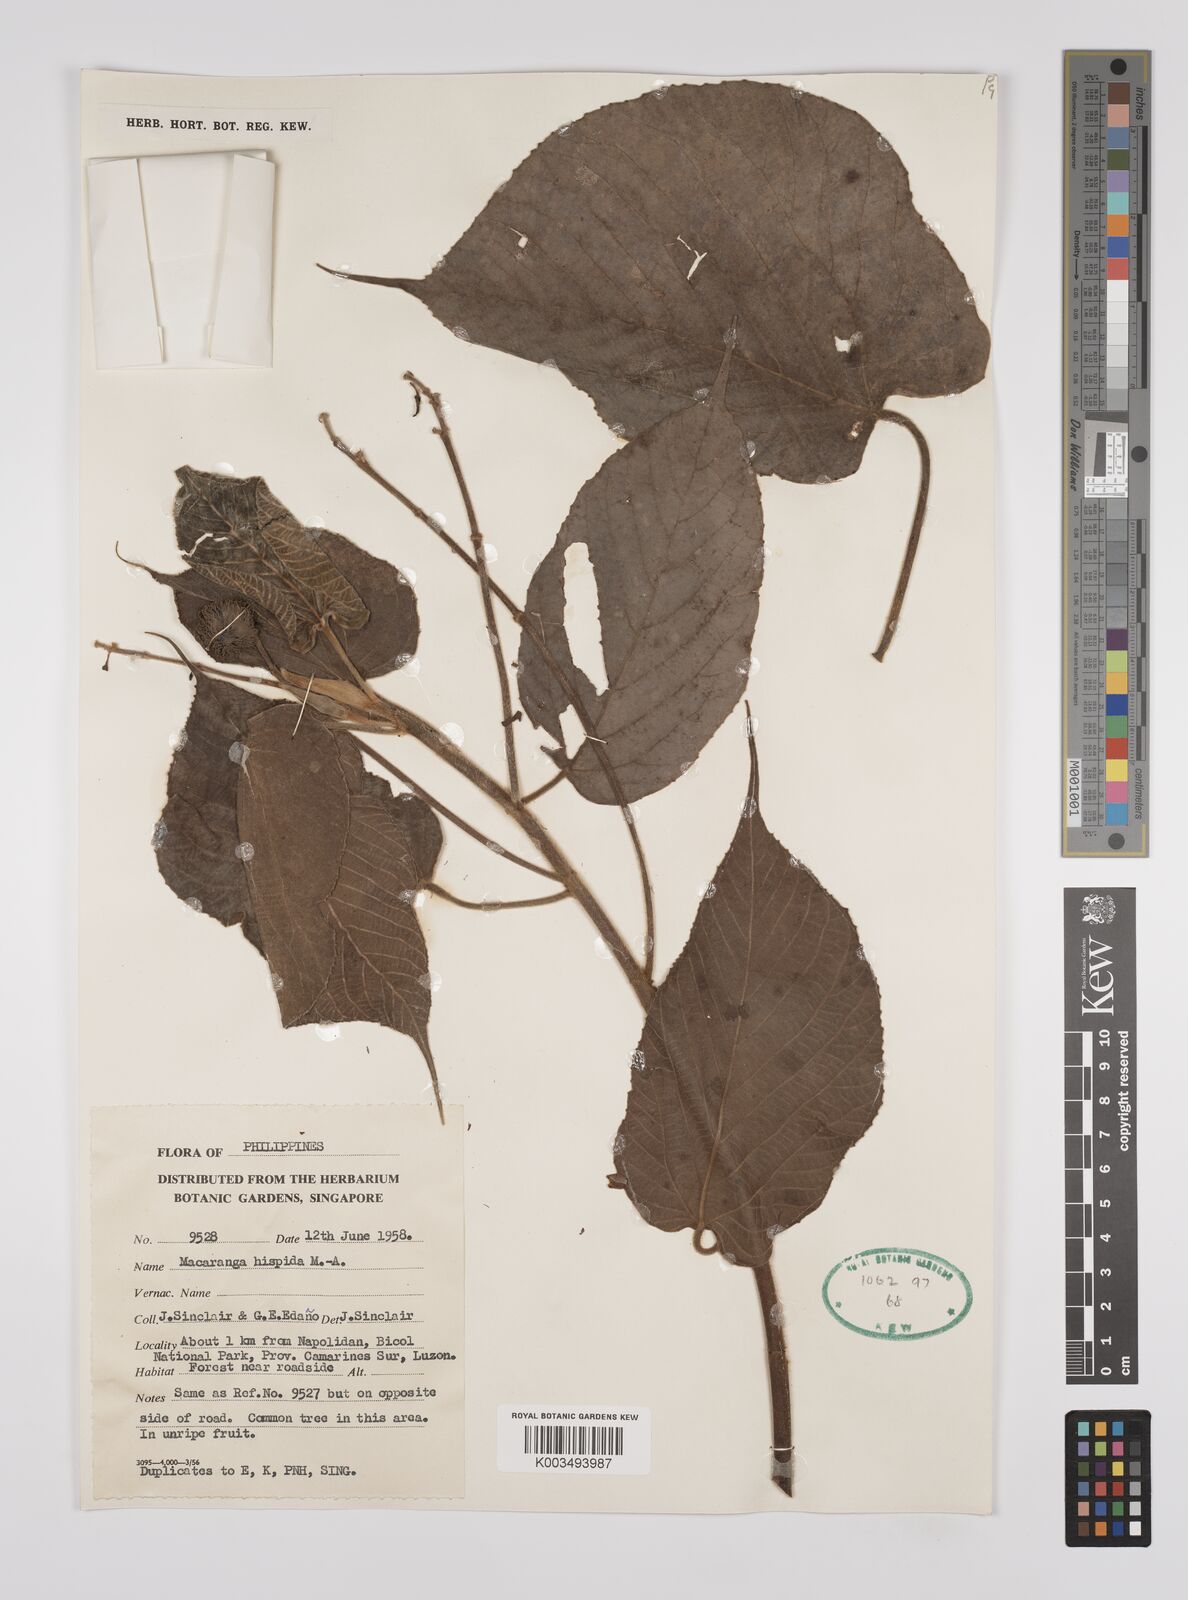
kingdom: Plantae
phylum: Tracheophyta
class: Magnoliopsida
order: Malpighiales
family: Euphorbiaceae
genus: Macaranga
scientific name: Macaranga hispida
